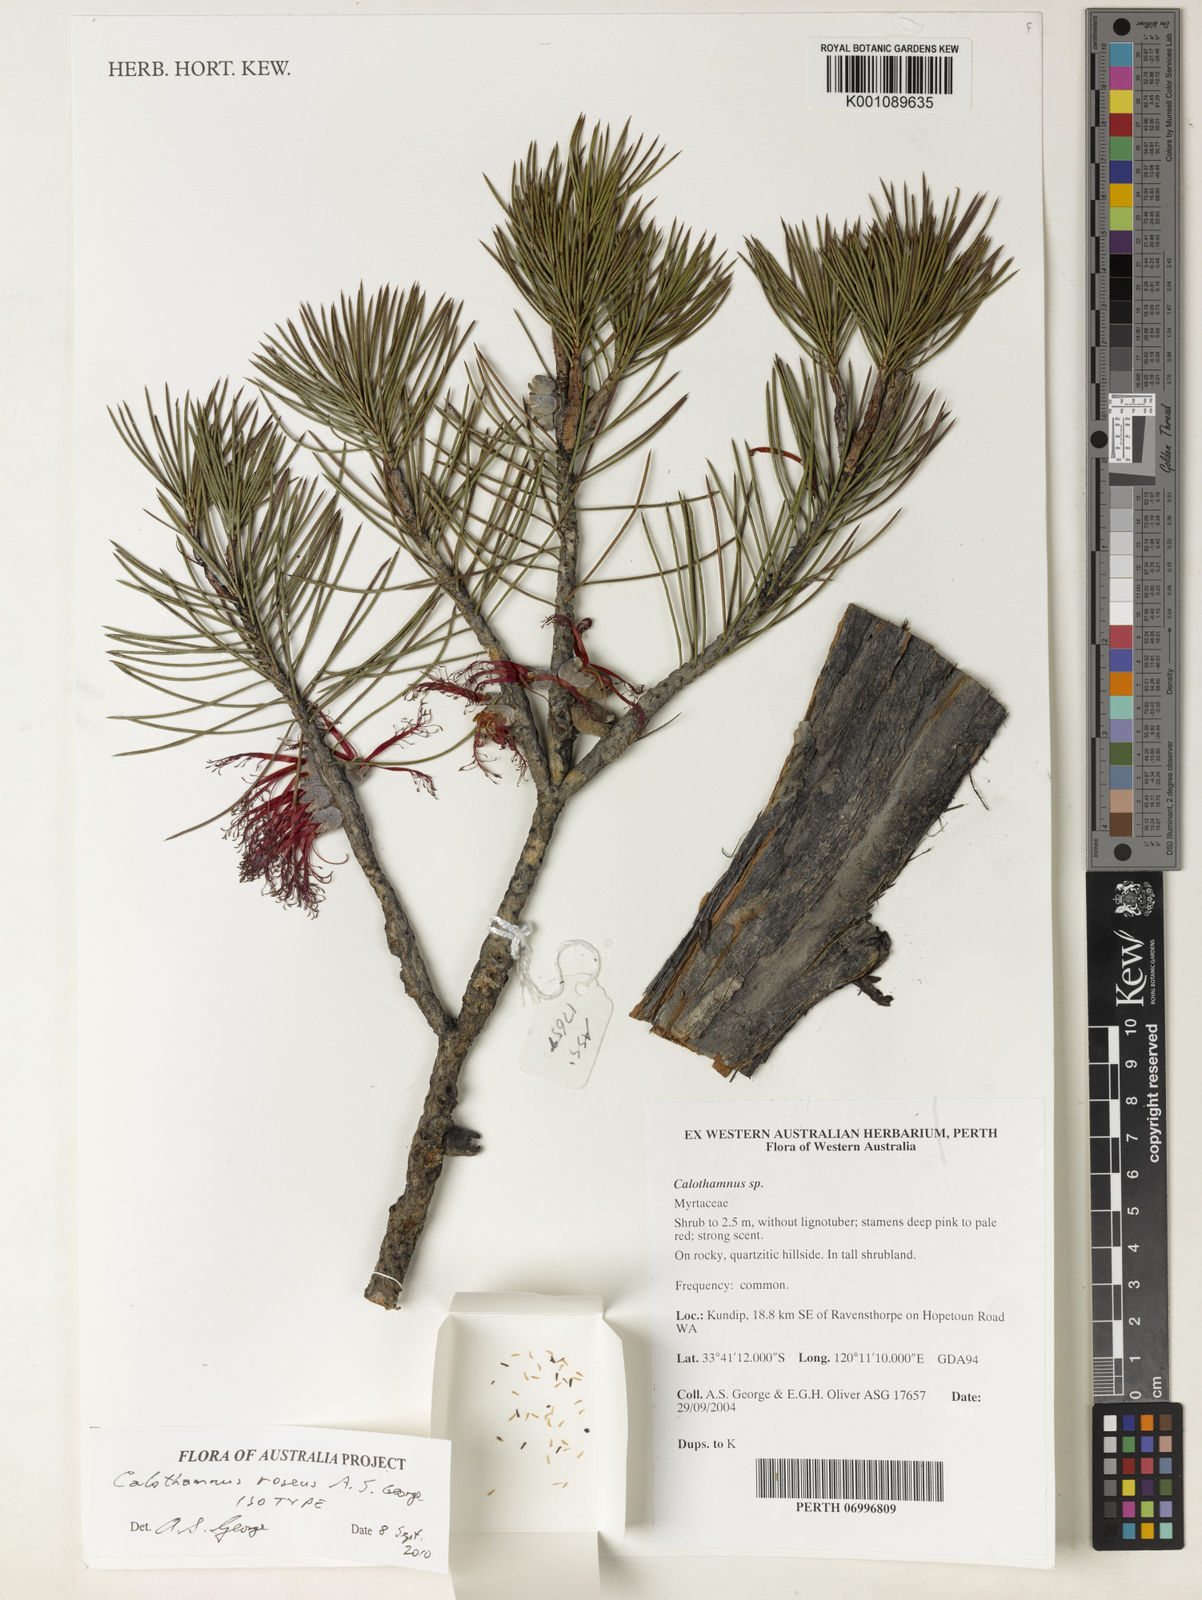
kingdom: Plantae
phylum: Tracheophyta
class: Magnoliopsida
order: Myrtales
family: Myrtaceae
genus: Melaleuca
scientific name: Melaleuca rosea
